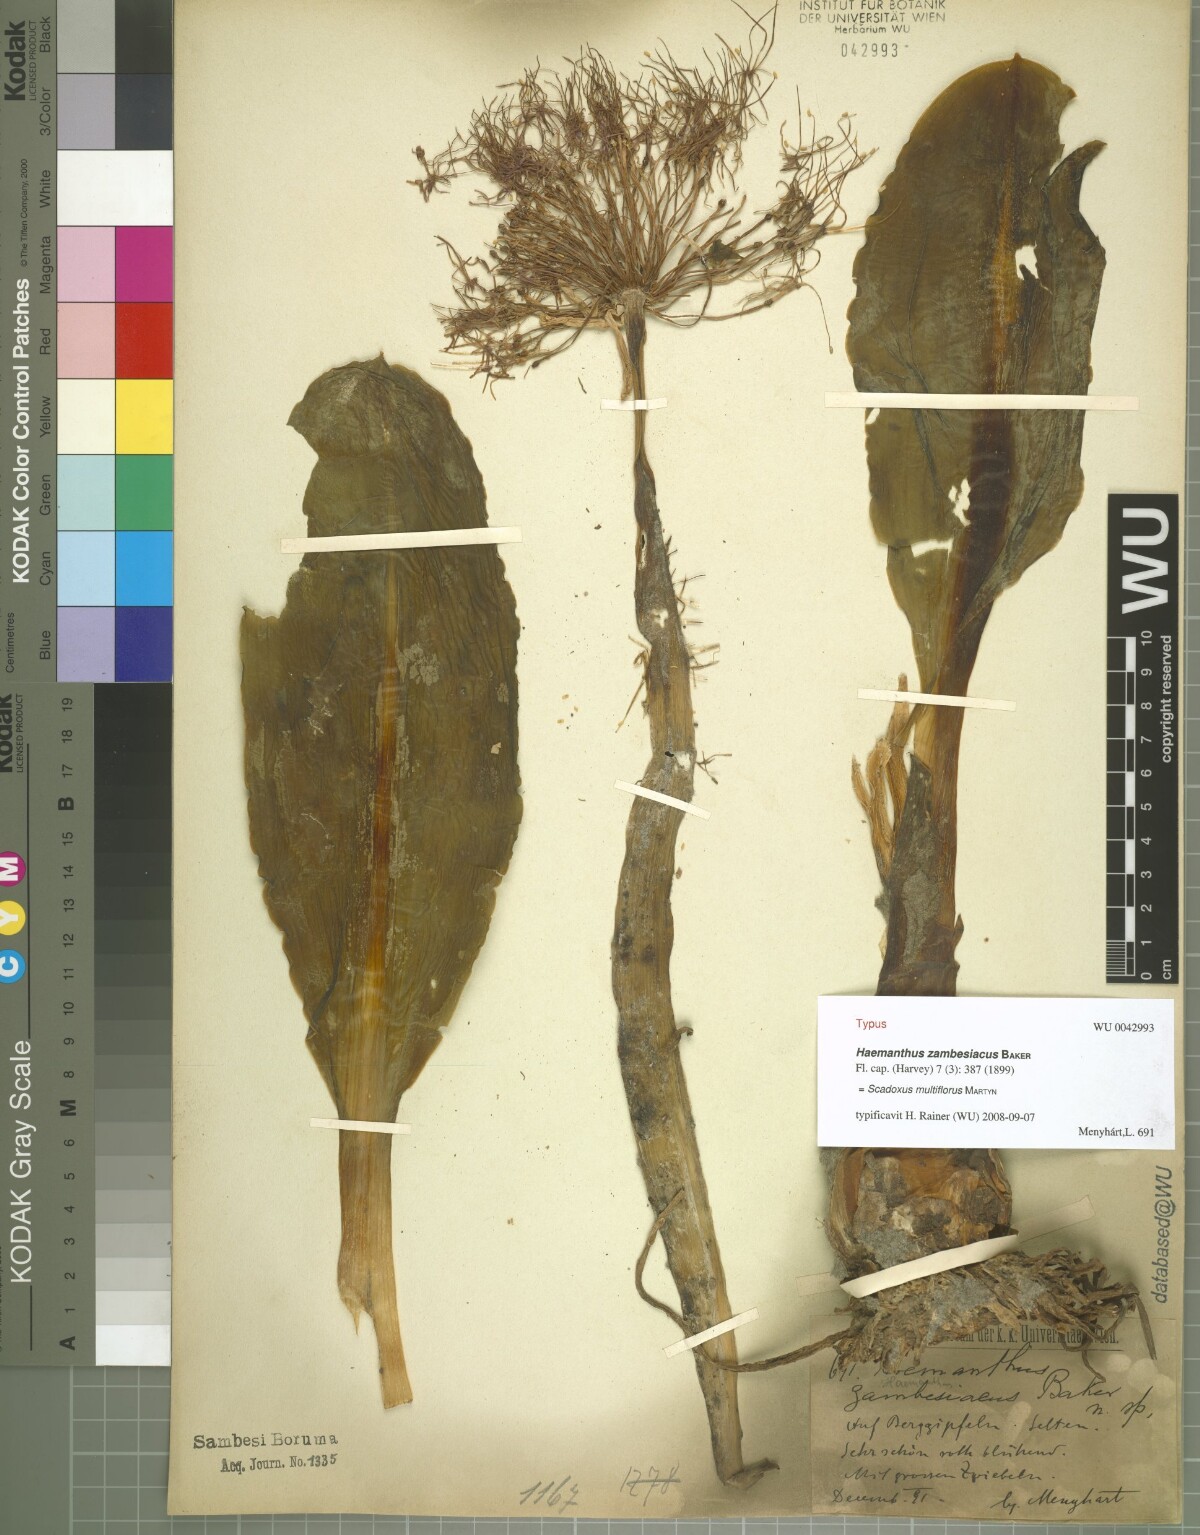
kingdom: Plantae
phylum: Tracheophyta
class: Liliopsida
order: Asparagales
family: Amaryllidaceae
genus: Scadoxus
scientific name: Scadoxus multiflorus
